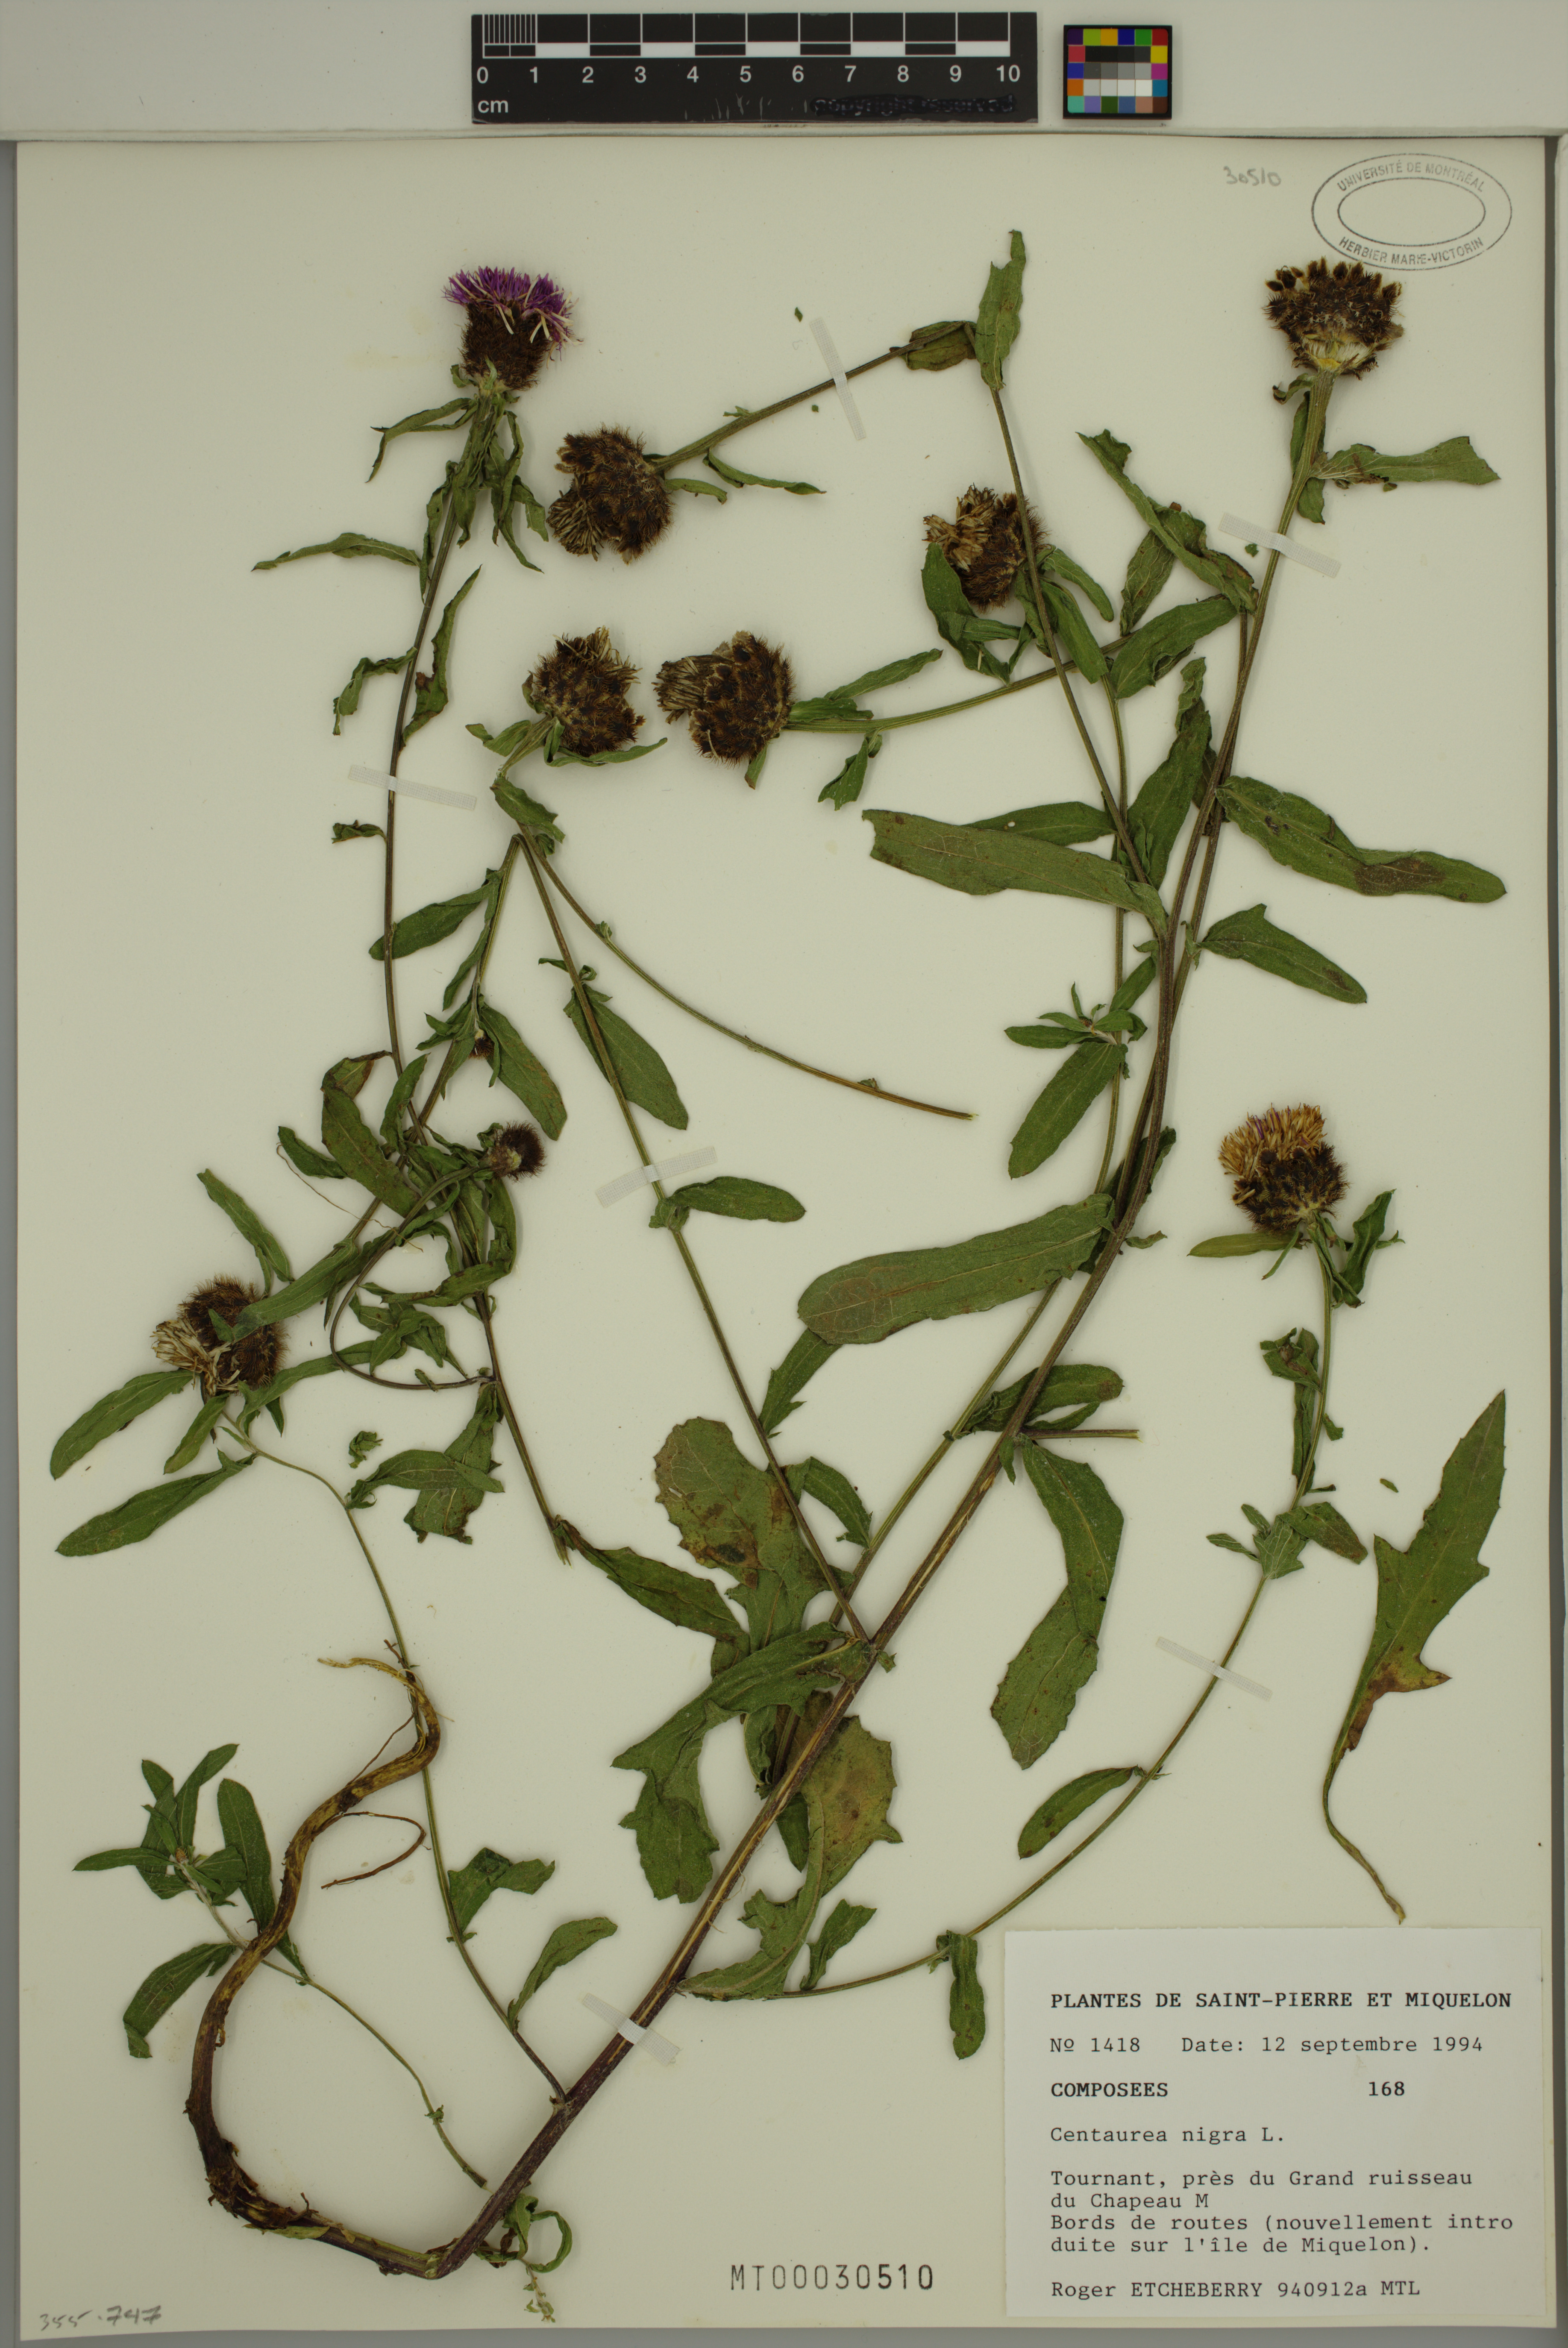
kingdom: Plantae
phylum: Tracheophyta
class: Magnoliopsida
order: Asterales
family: Asteraceae
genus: Centaurea
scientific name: Centaurea nigra
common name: Lesser knapweed
